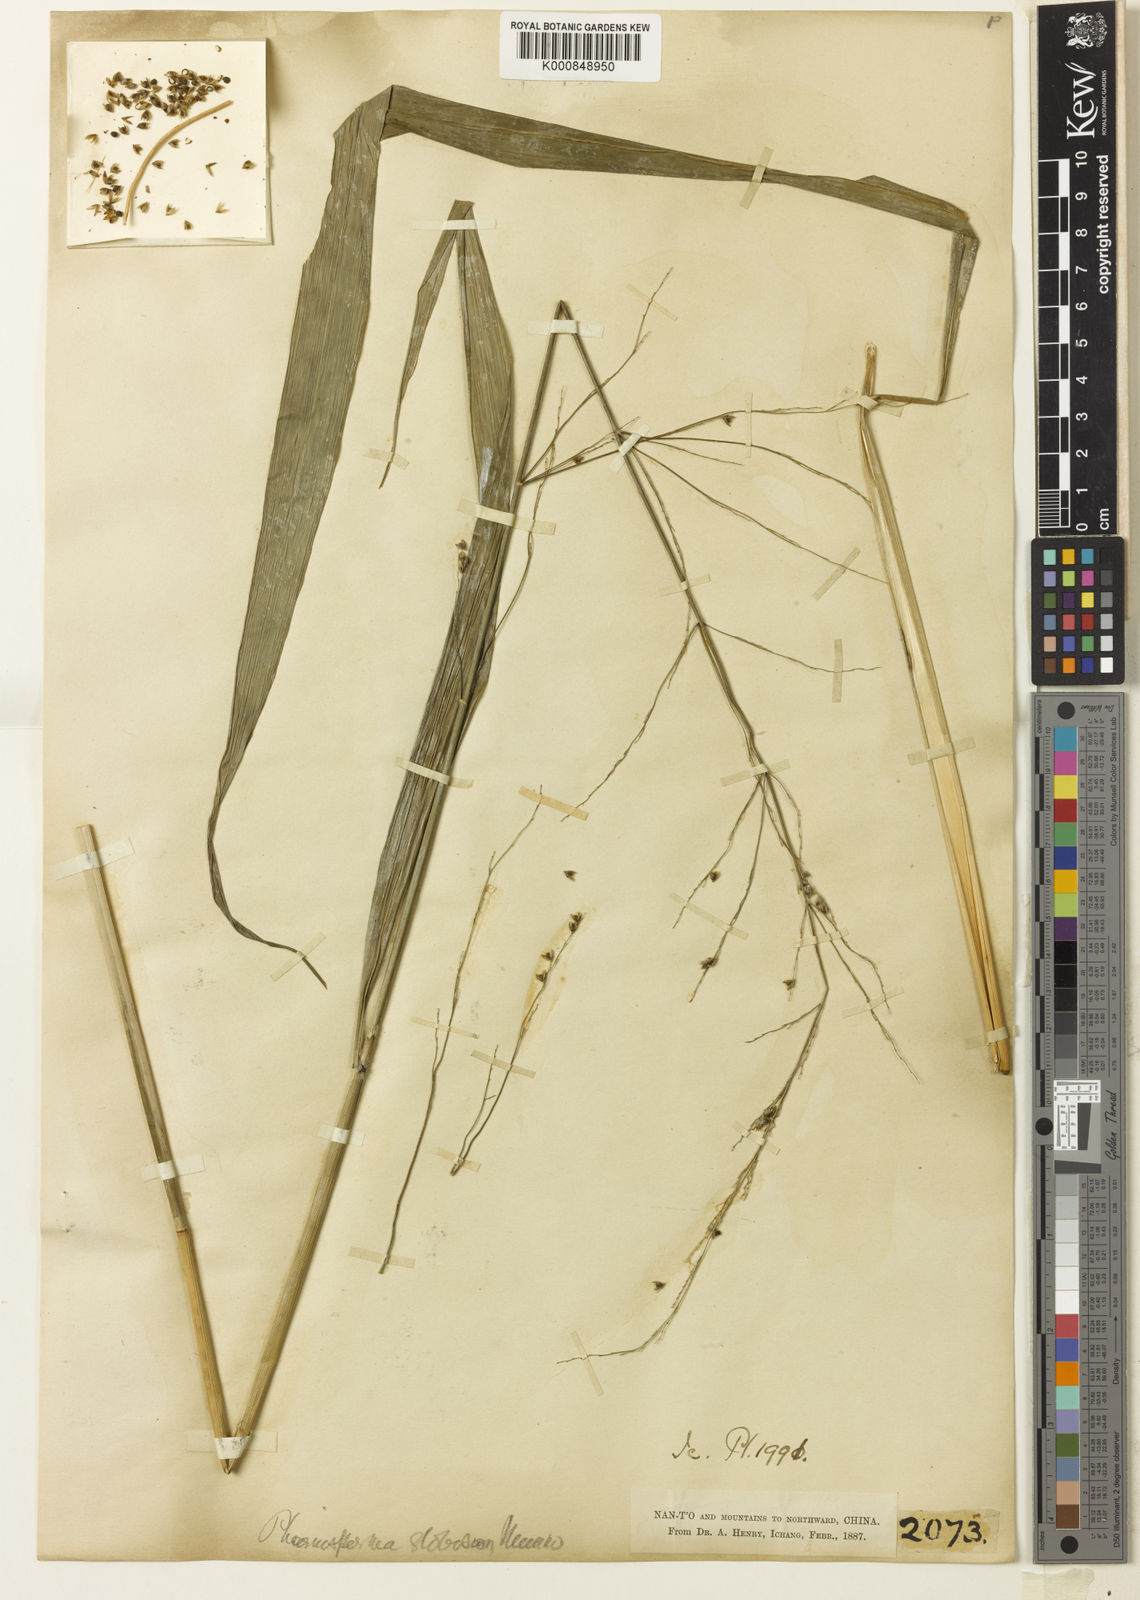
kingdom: Plantae
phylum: Tracheophyta
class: Liliopsida
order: Poales
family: Poaceae
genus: Phaenosperma
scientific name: Phaenosperma
